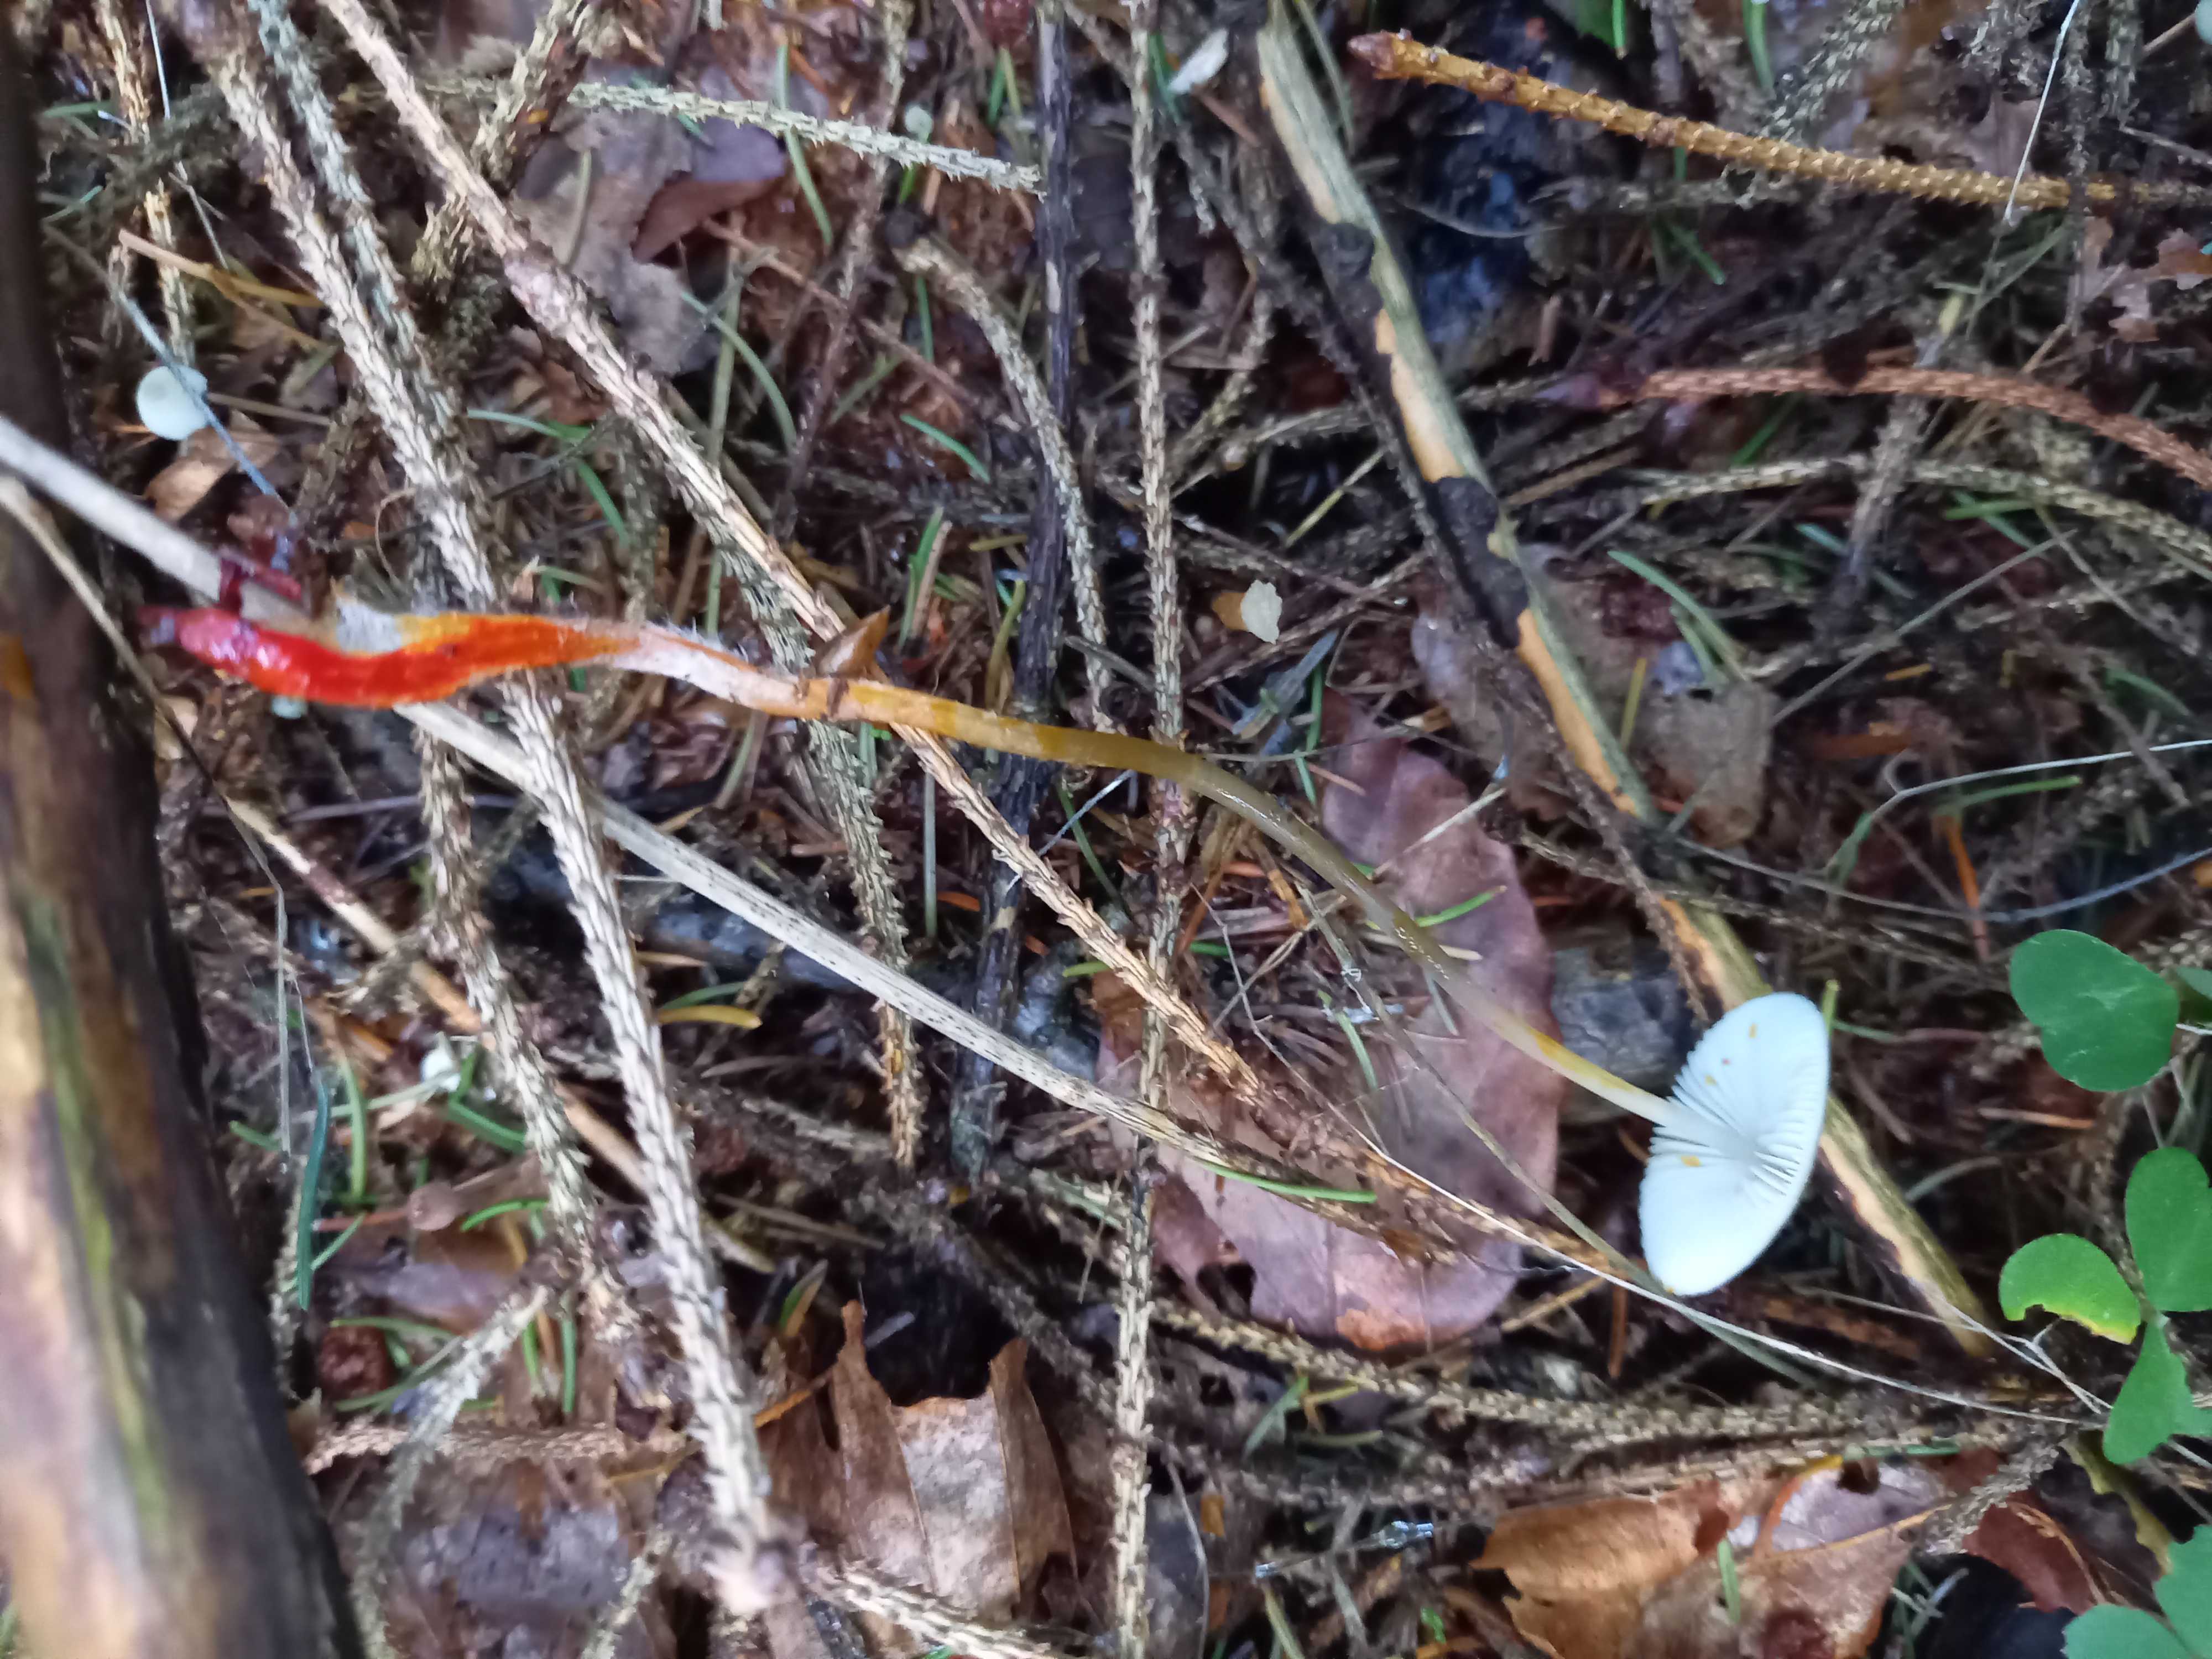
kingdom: Fungi
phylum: Basidiomycota
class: Agaricomycetes
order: Agaricales
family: Mycenaceae
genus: Mycena
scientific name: Mycena crocata
